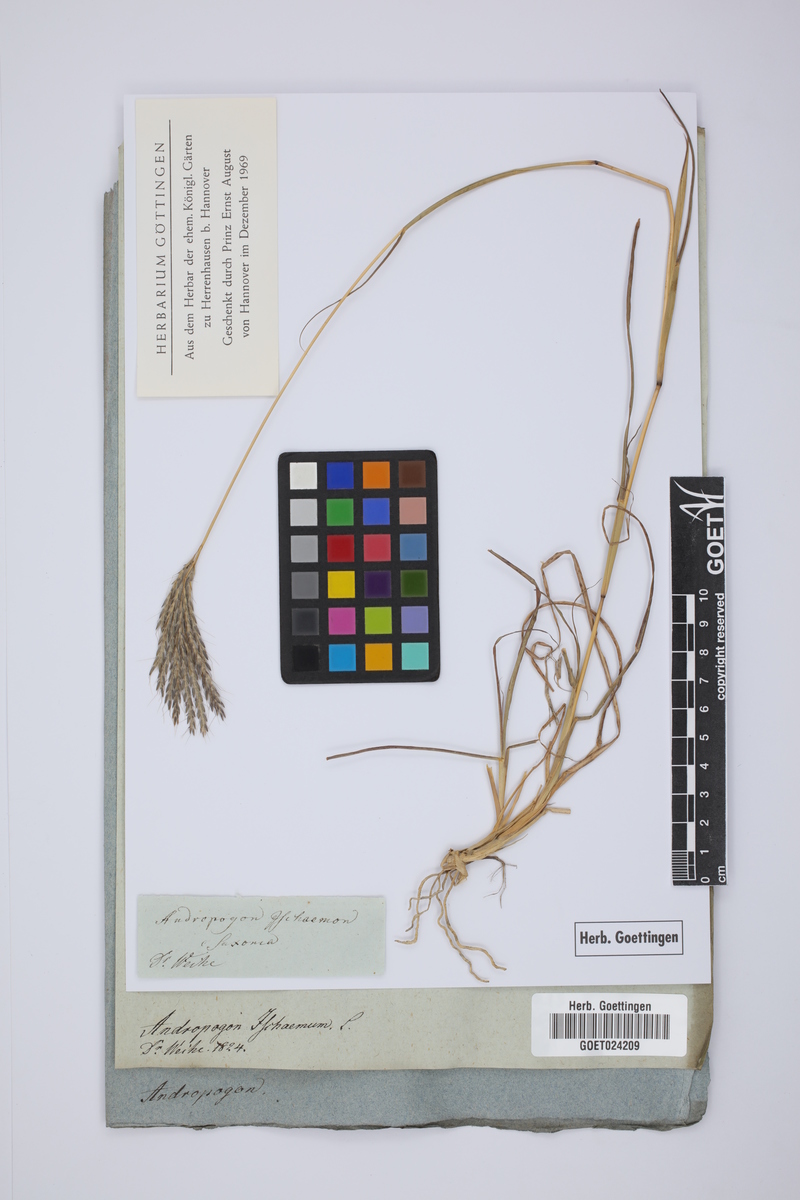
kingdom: Plantae
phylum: Tracheophyta
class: Liliopsida
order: Poales
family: Poaceae
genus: Bothriochloa
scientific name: Bothriochloa ischaemum
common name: Yellow bluestem
